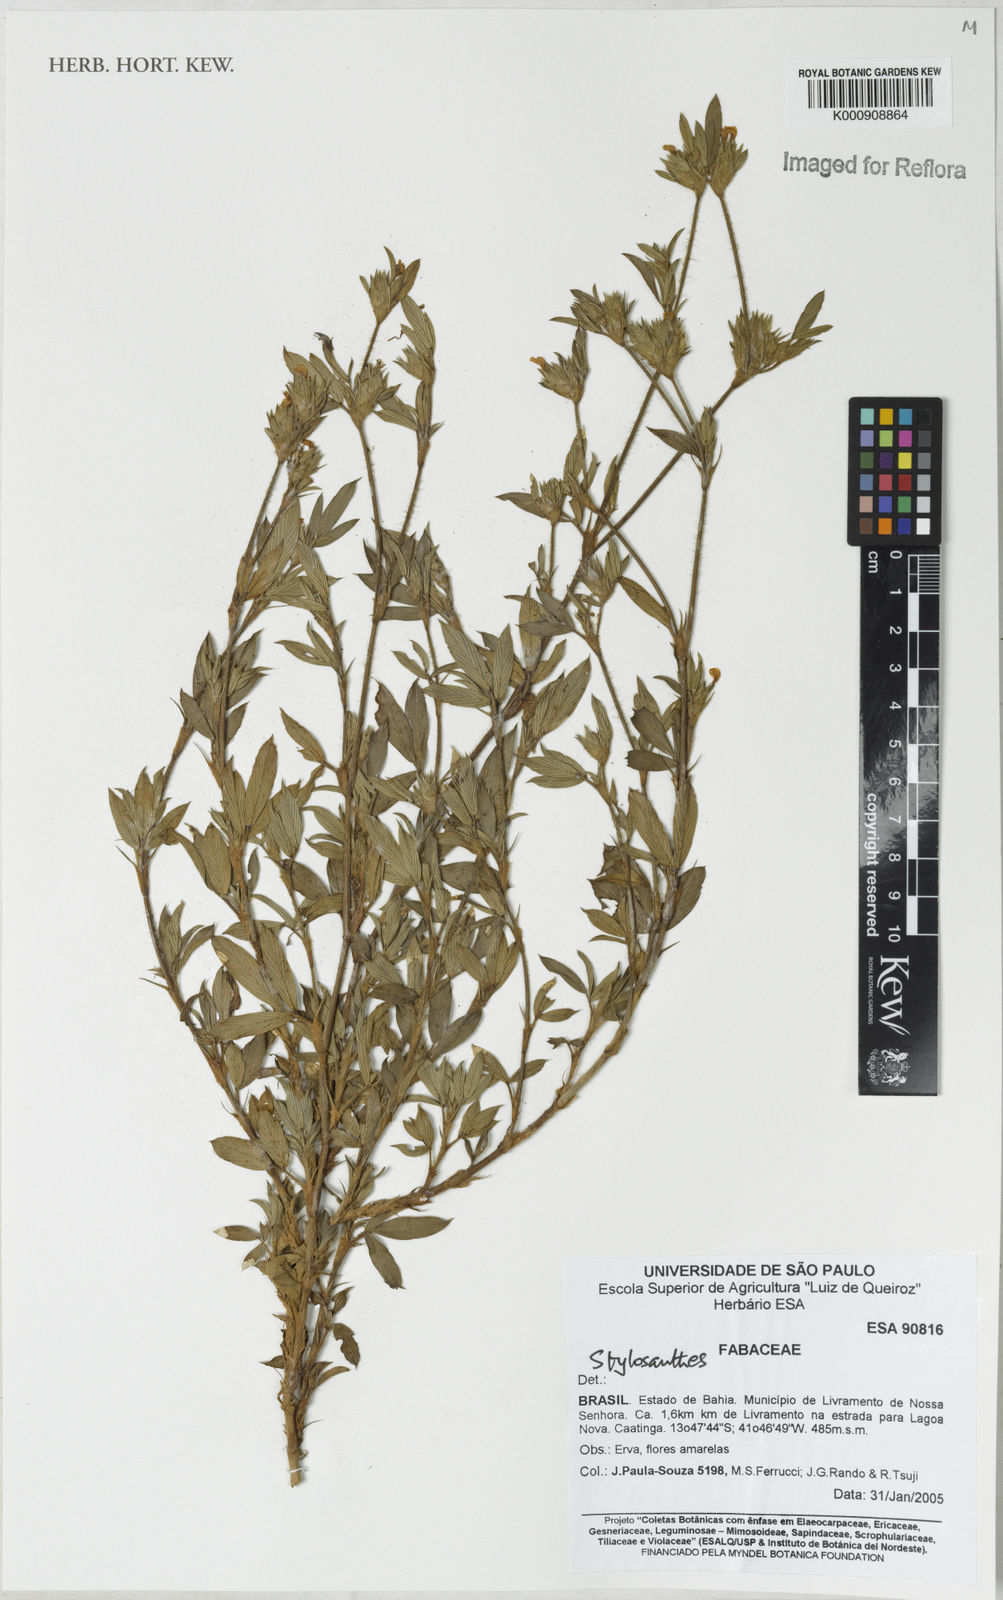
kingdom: Plantae
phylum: Tracheophyta
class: Magnoliopsida
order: Fabales
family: Fabaceae
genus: Stylosanthes
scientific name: Stylosanthes
